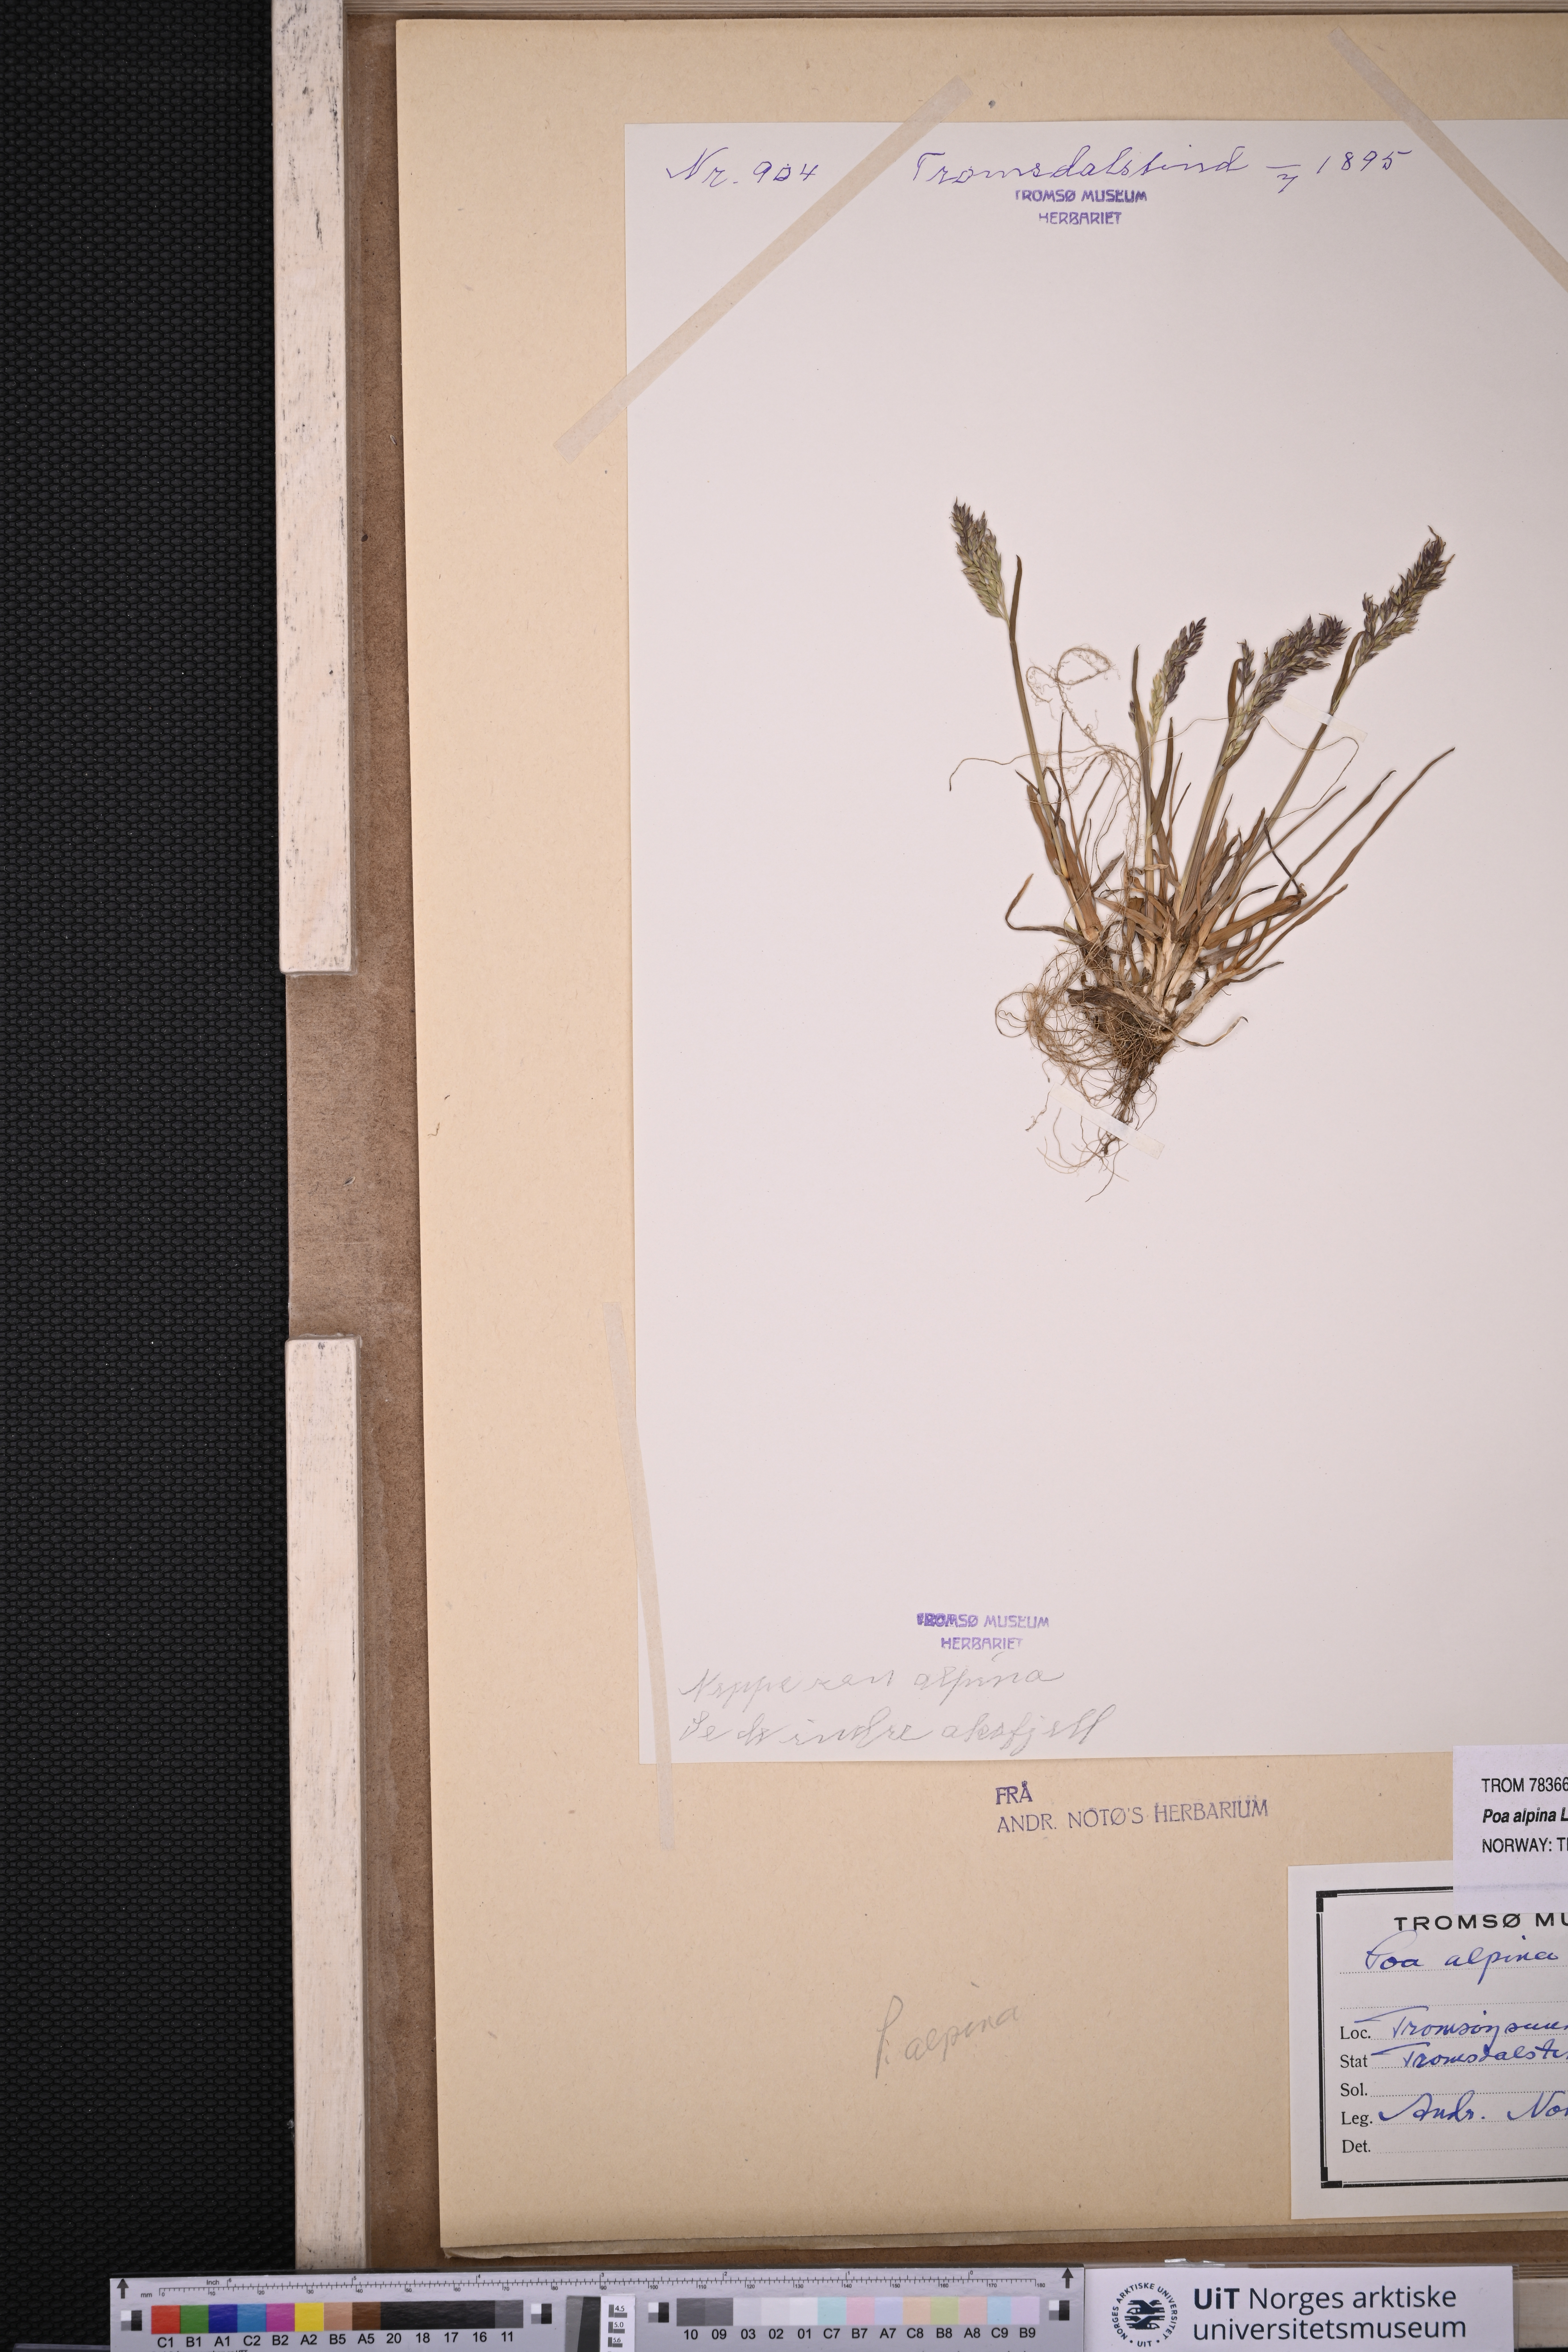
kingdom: Plantae
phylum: Tracheophyta
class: Liliopsida
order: Poales
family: Poaceae
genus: Poa
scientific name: Poa alpina
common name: Alpine bluegrass
